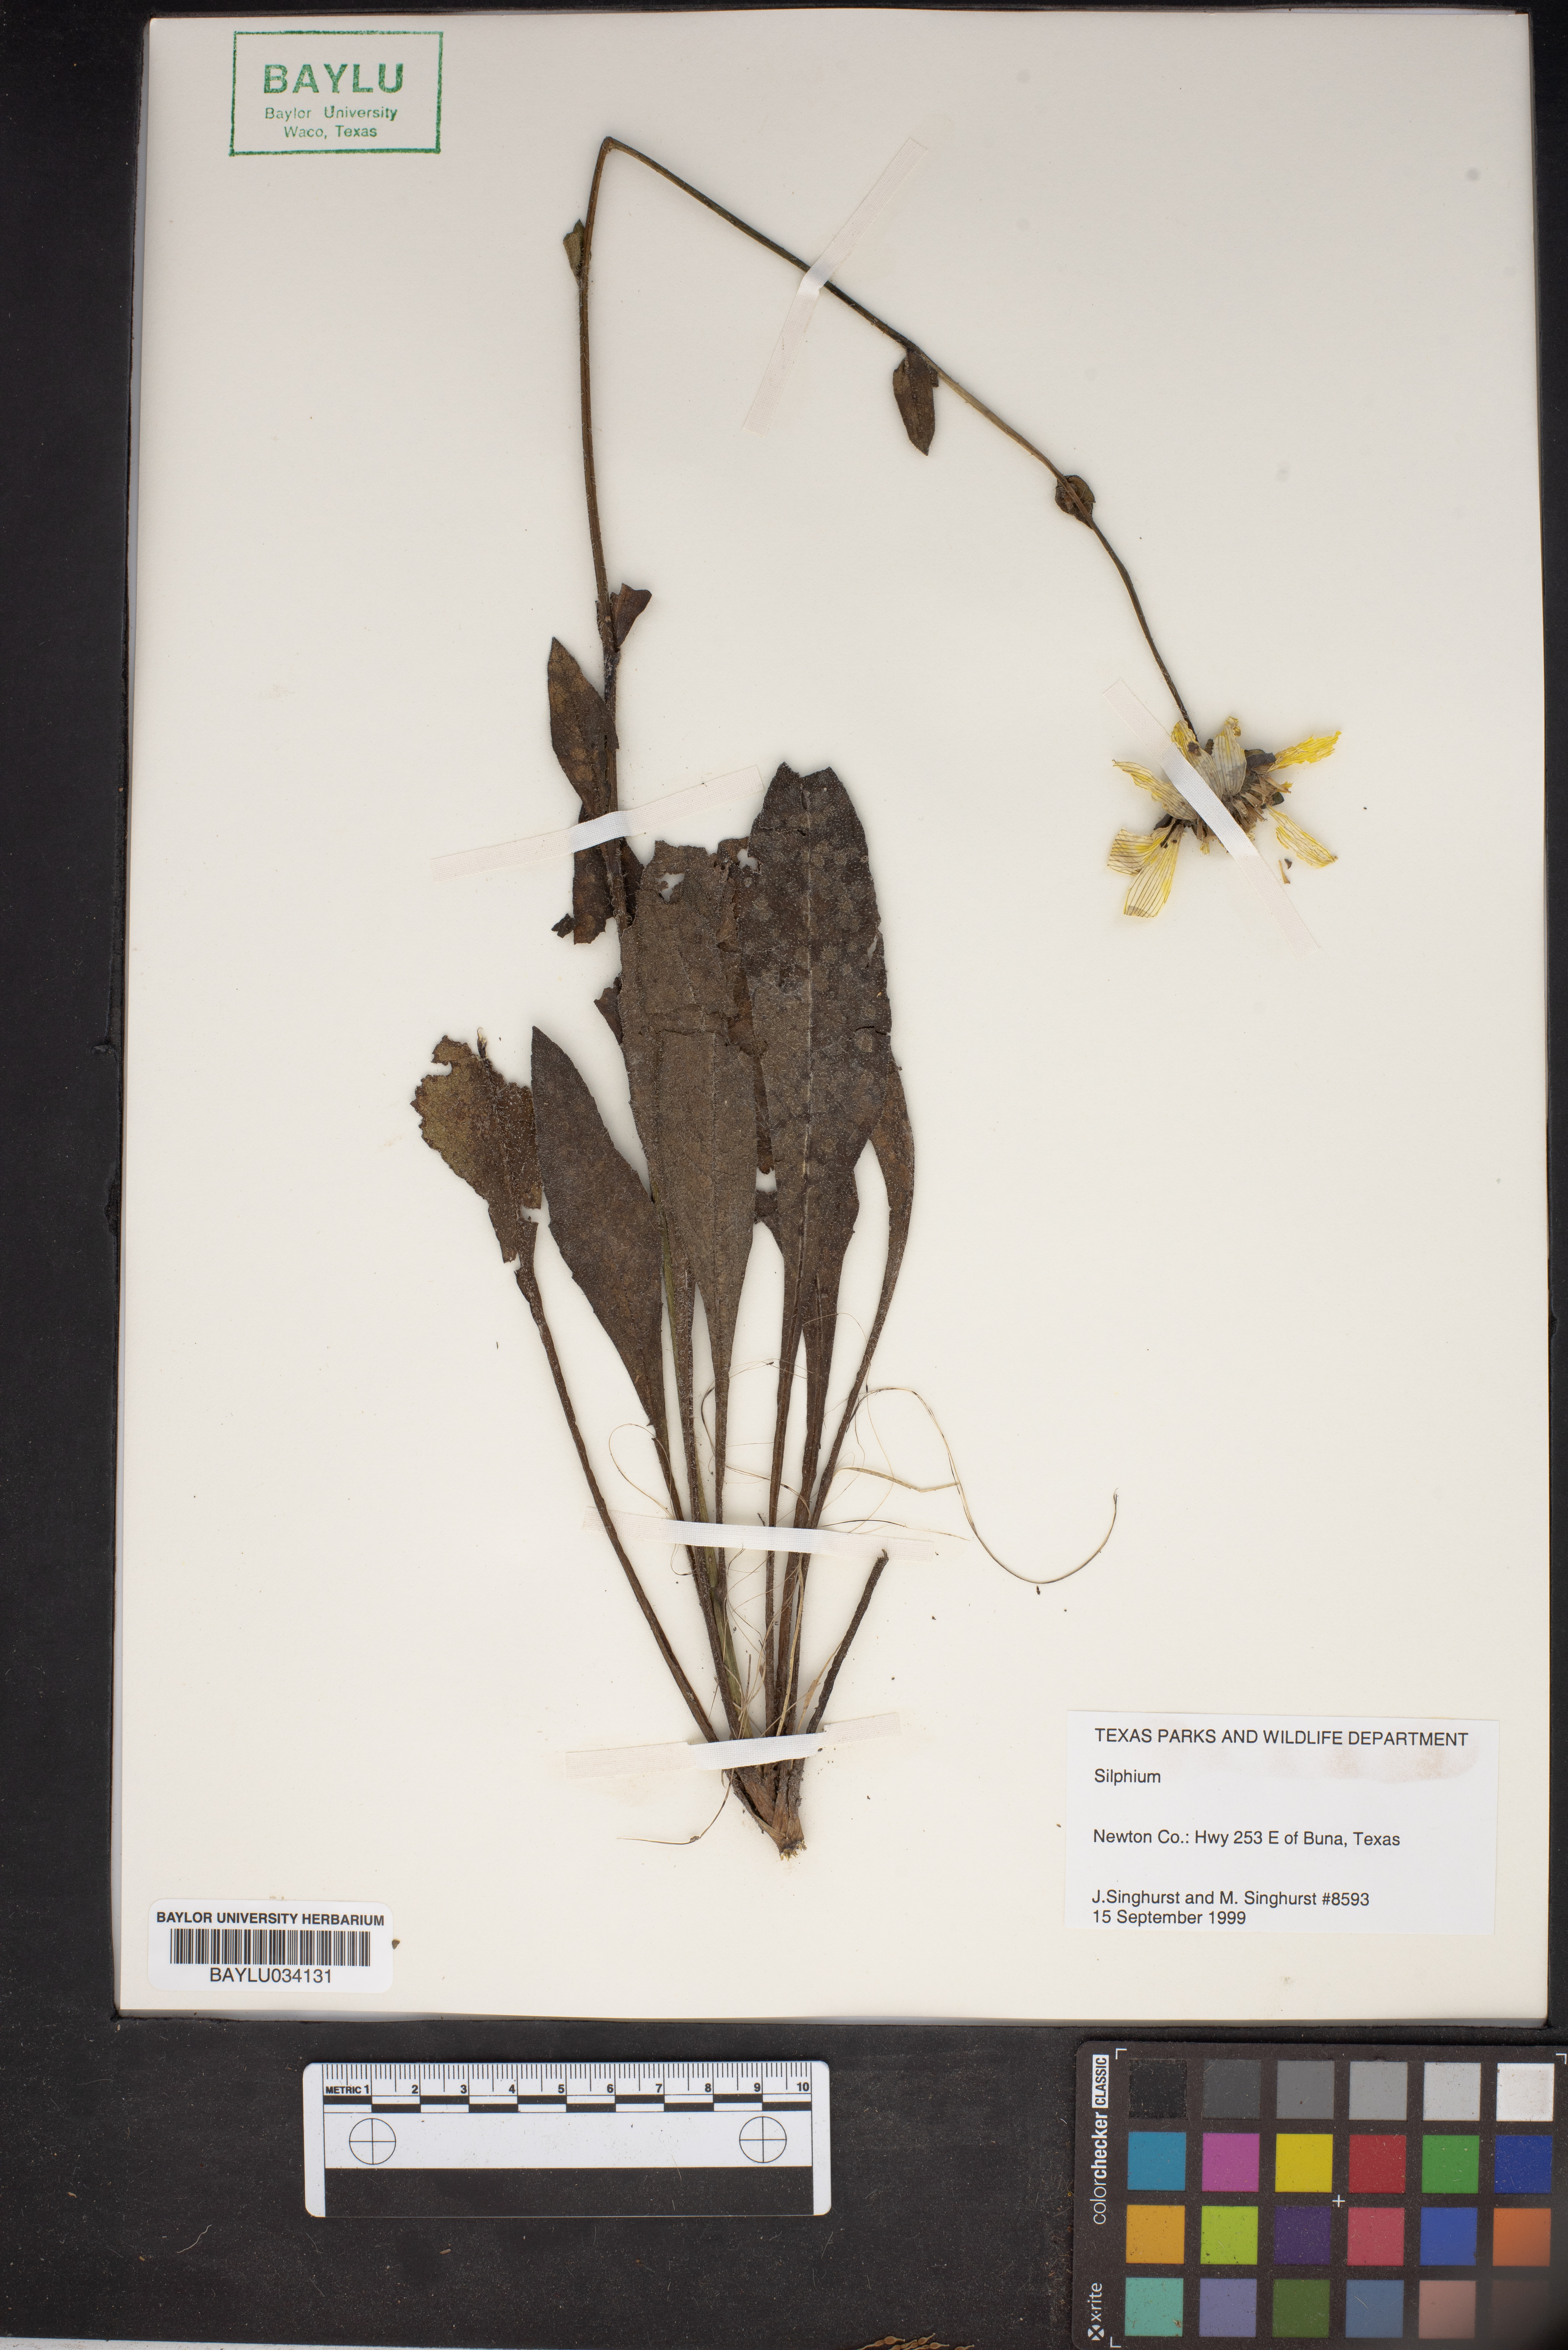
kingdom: Plantae
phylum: Tracheophyta
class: Magnoliopsida
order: Asterales
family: Asteraceae
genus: Silphium
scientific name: Silphium
